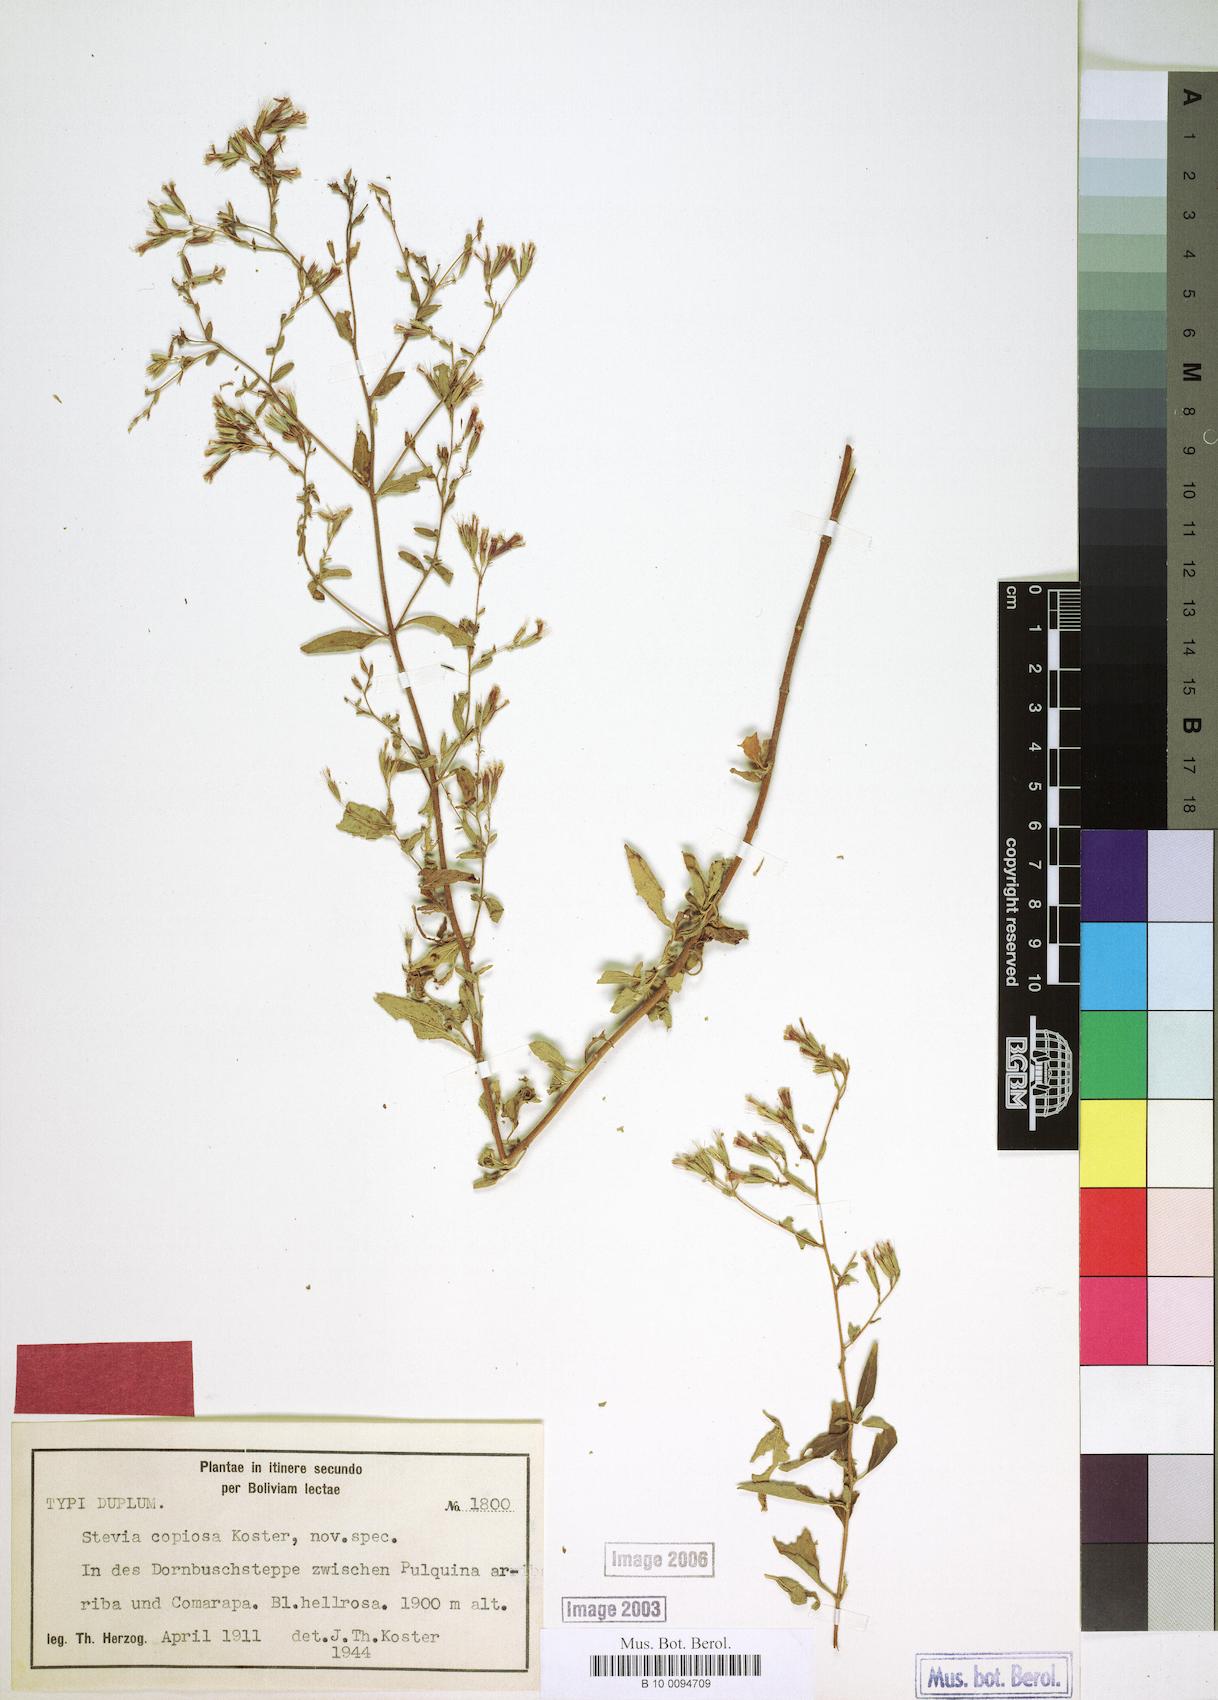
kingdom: Plantae
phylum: Tracheophyta
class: Magnoliopsida
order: Asterales
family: Asteraceae
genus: Stevia
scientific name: Stevia copiosa
